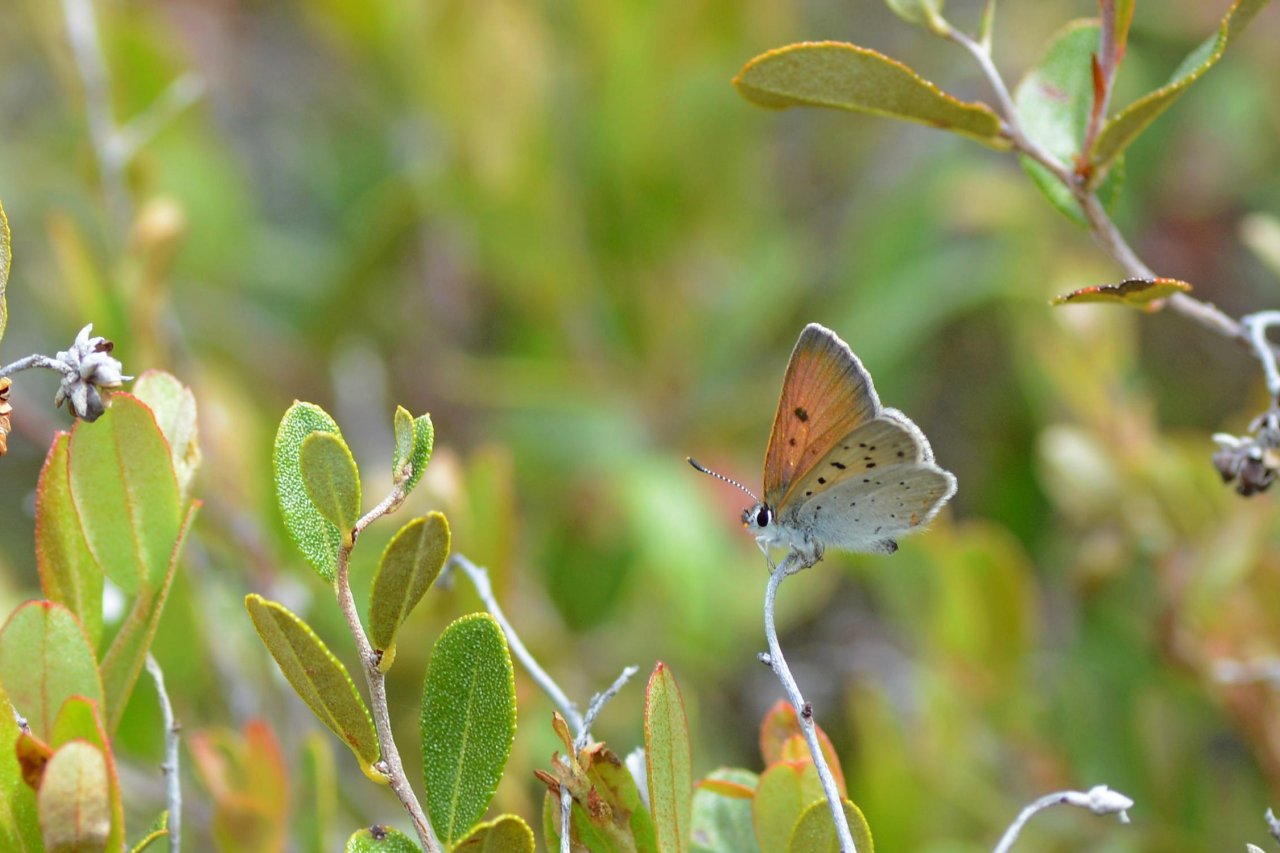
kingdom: Animalia
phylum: Arthropoda
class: Insecta
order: Lepidoptera
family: Sesiidae
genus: Sesia
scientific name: Sesia Lycaena epixanthe
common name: Bog Copper
